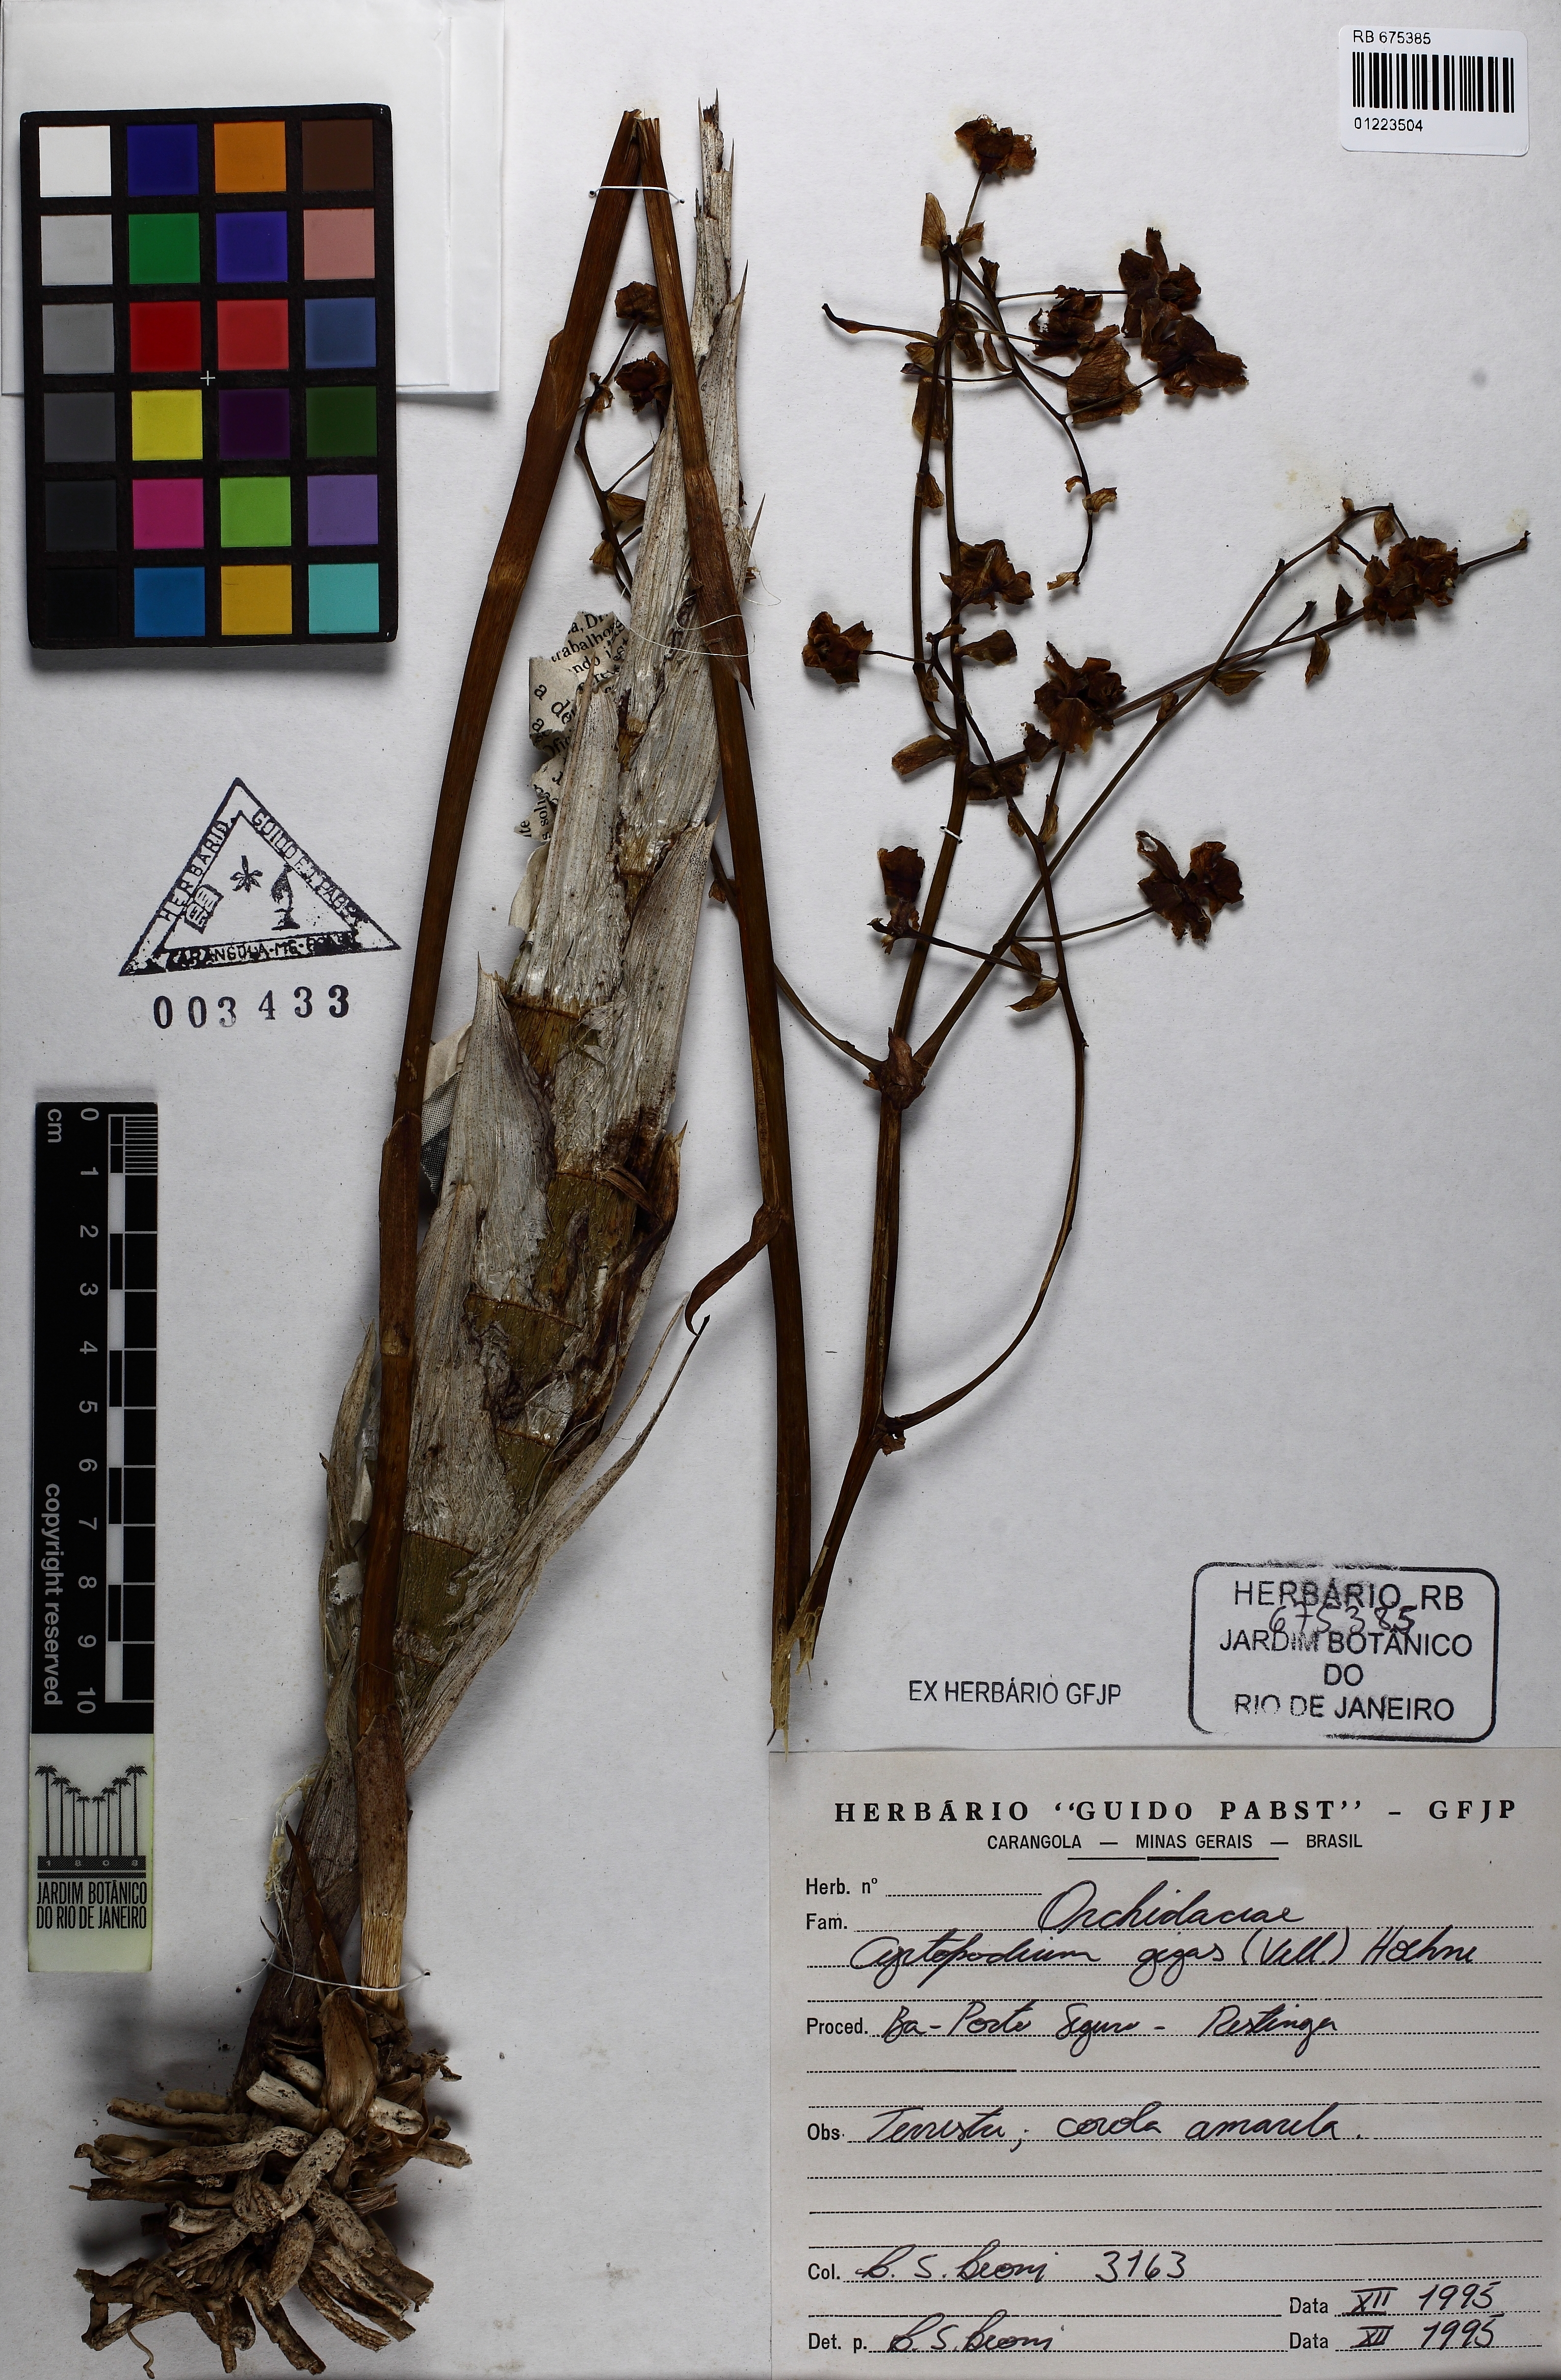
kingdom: Plantae
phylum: Tracheophyta
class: Liliopsida
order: Asparagales
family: Orchidaceae
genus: Cyrtopodium
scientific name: Cyrtopodium gigas
